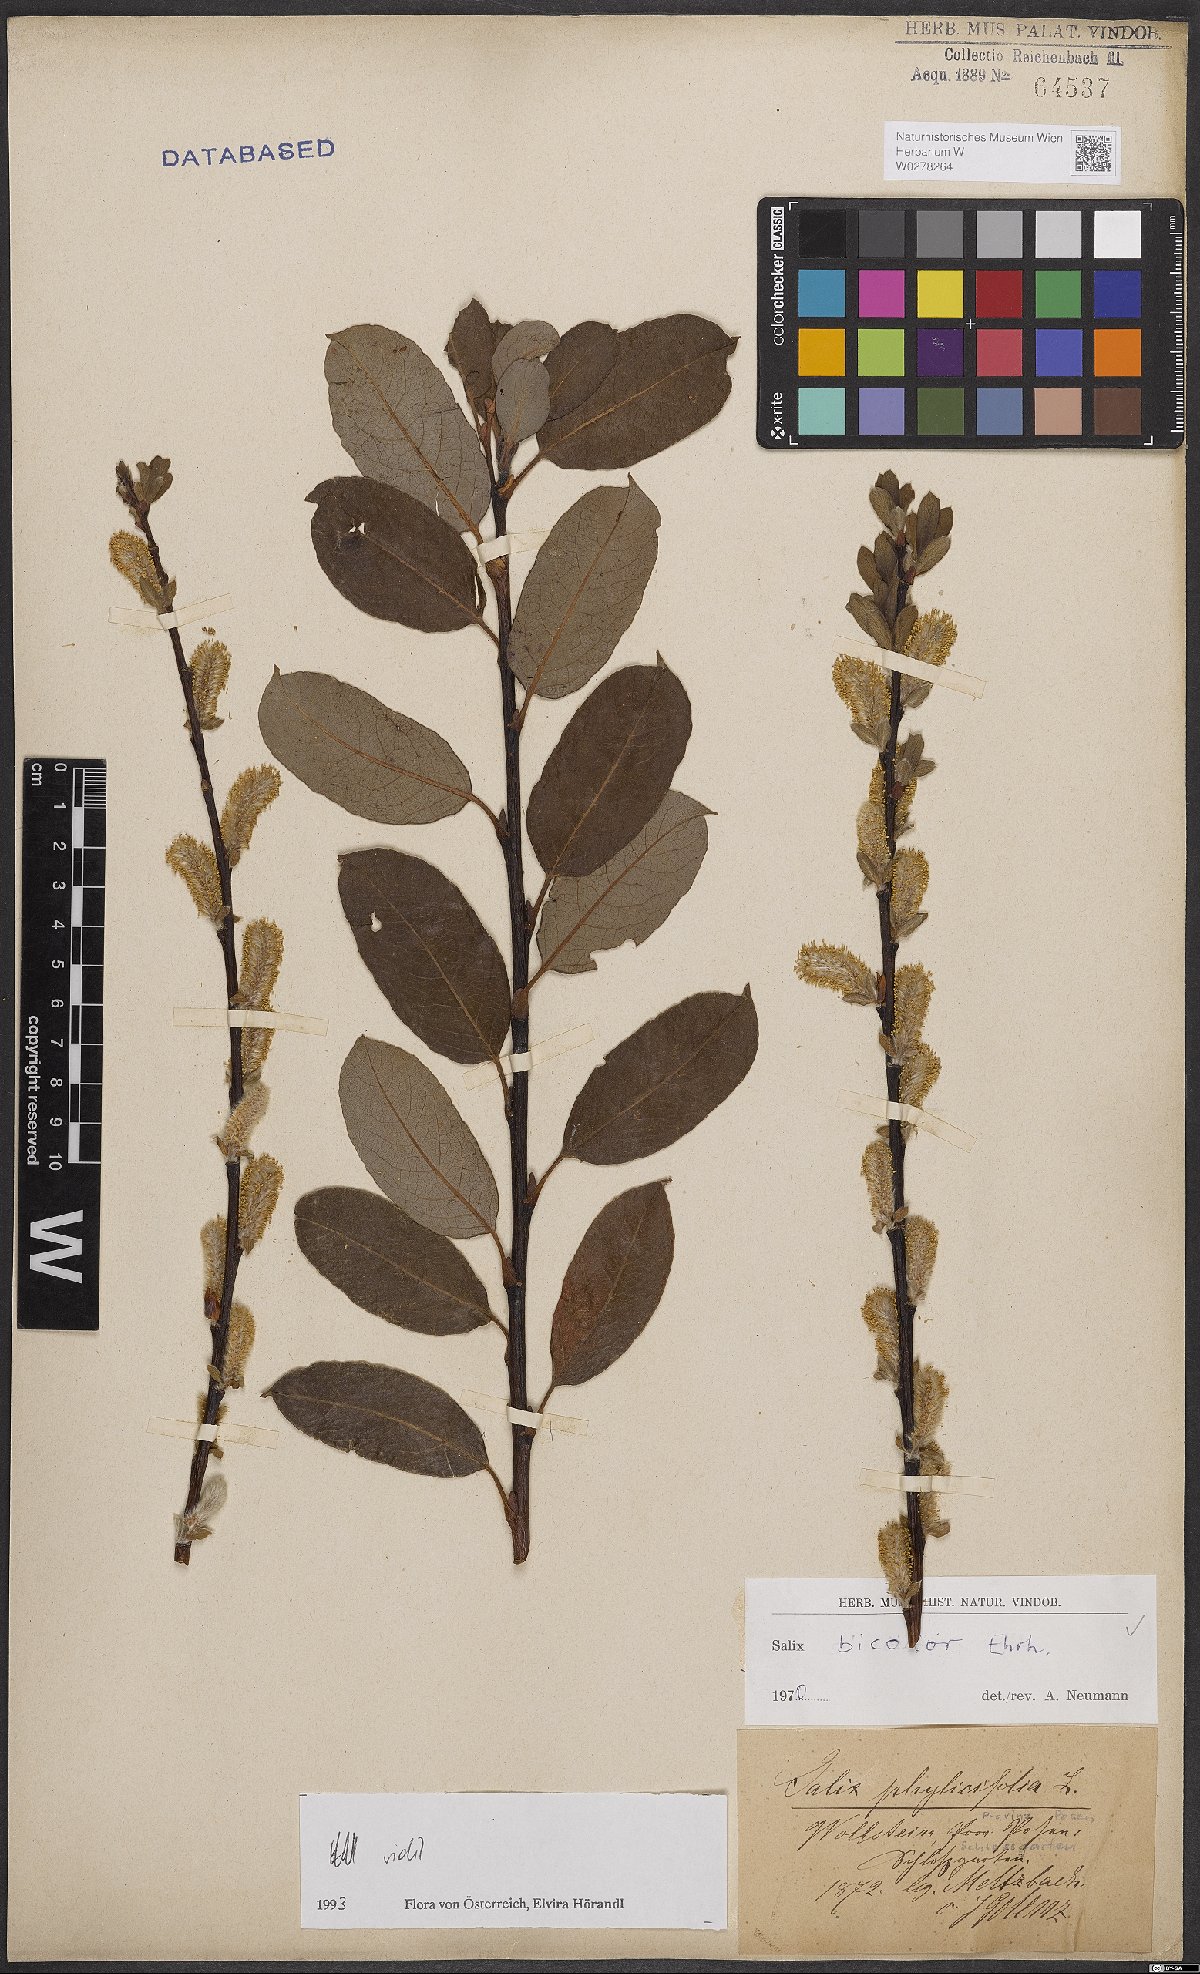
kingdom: Plantae
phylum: Tracheophyta
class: Magnoliopsida
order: Malpighiales
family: Salicaceae
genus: Salix
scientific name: Salix bicolor
